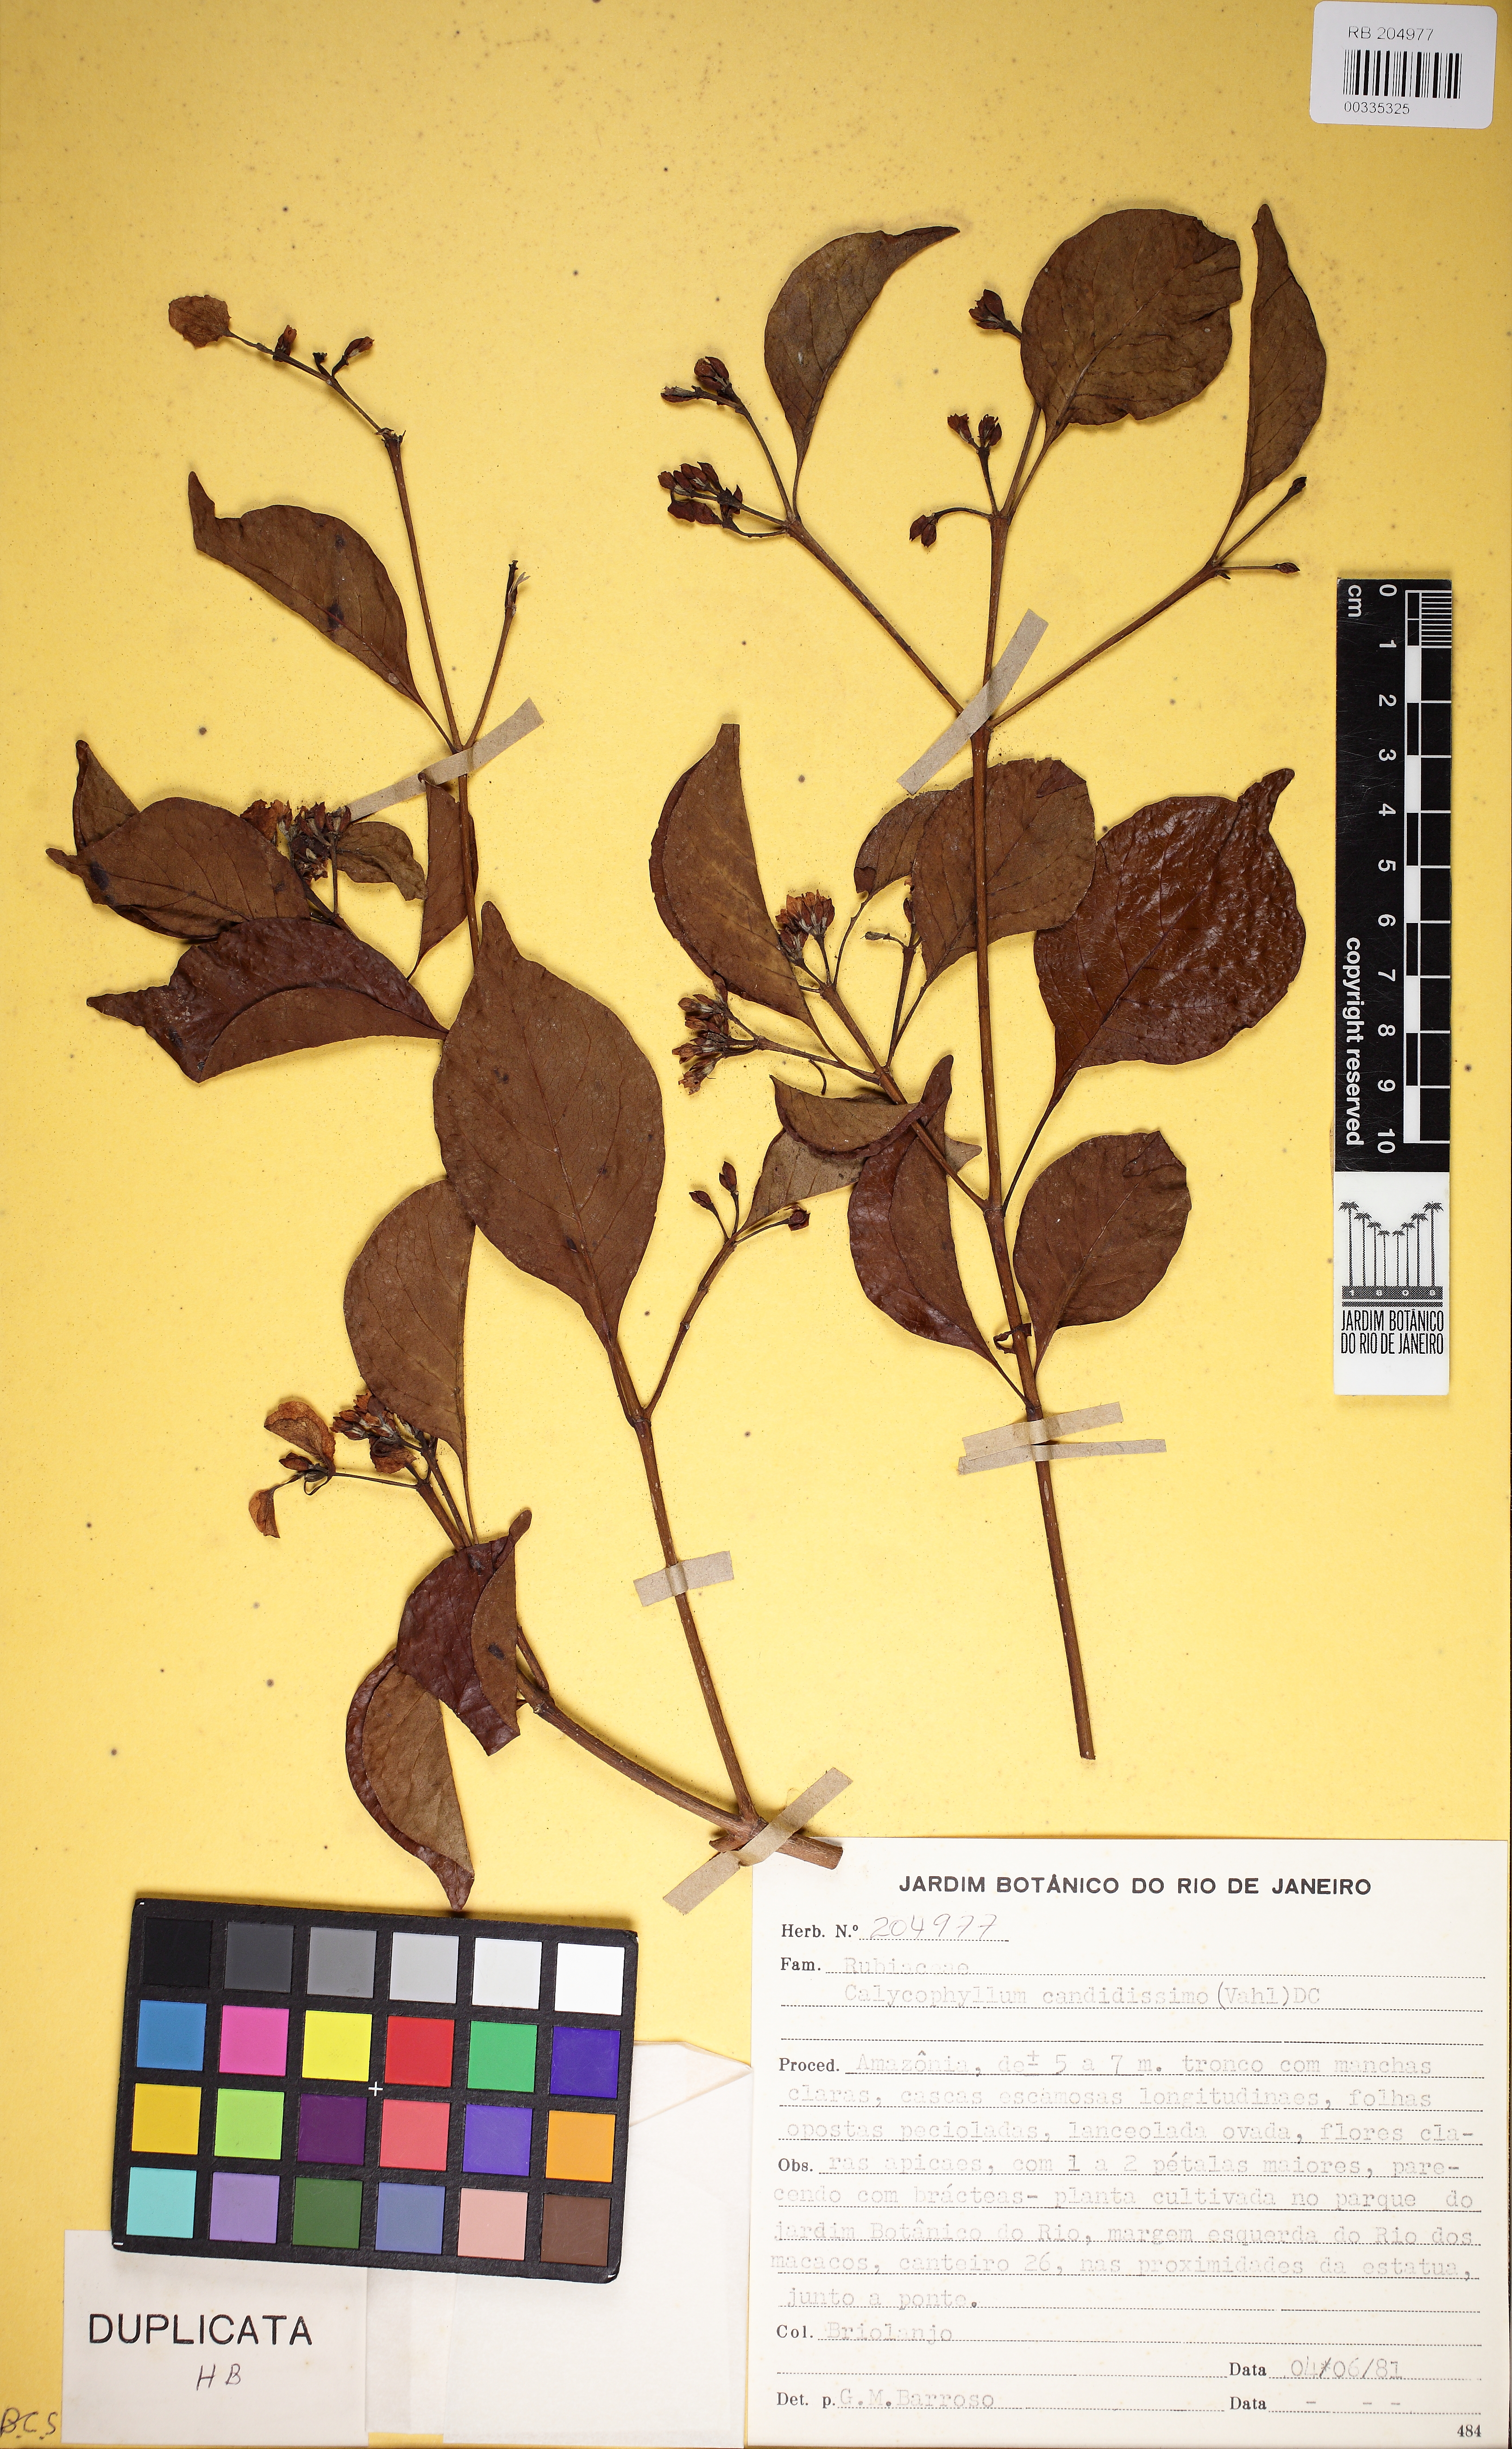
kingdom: Plantae
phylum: Tracheophyta
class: Magnoliopsida
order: Gentianales
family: Rubiaceae
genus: Calycophyllum
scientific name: Calycophyllum candidissimum
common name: Dagame
